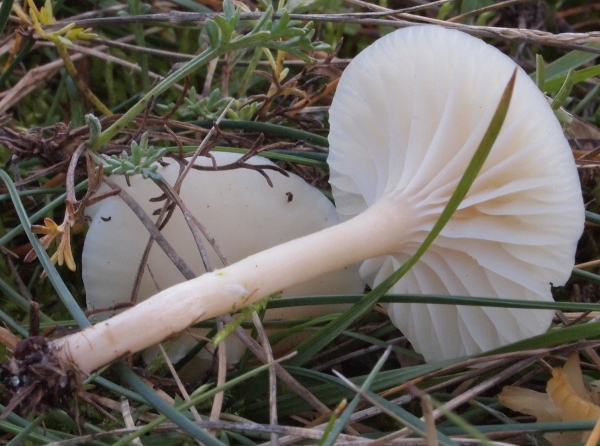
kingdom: Fungi
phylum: Basidiomycota
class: Agaricomycetes
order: Agaricales
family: Hygrophoraceae
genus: Cuphophyllus
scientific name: Cuphophyllus russocoriaceus
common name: ruslæder-vokshat
